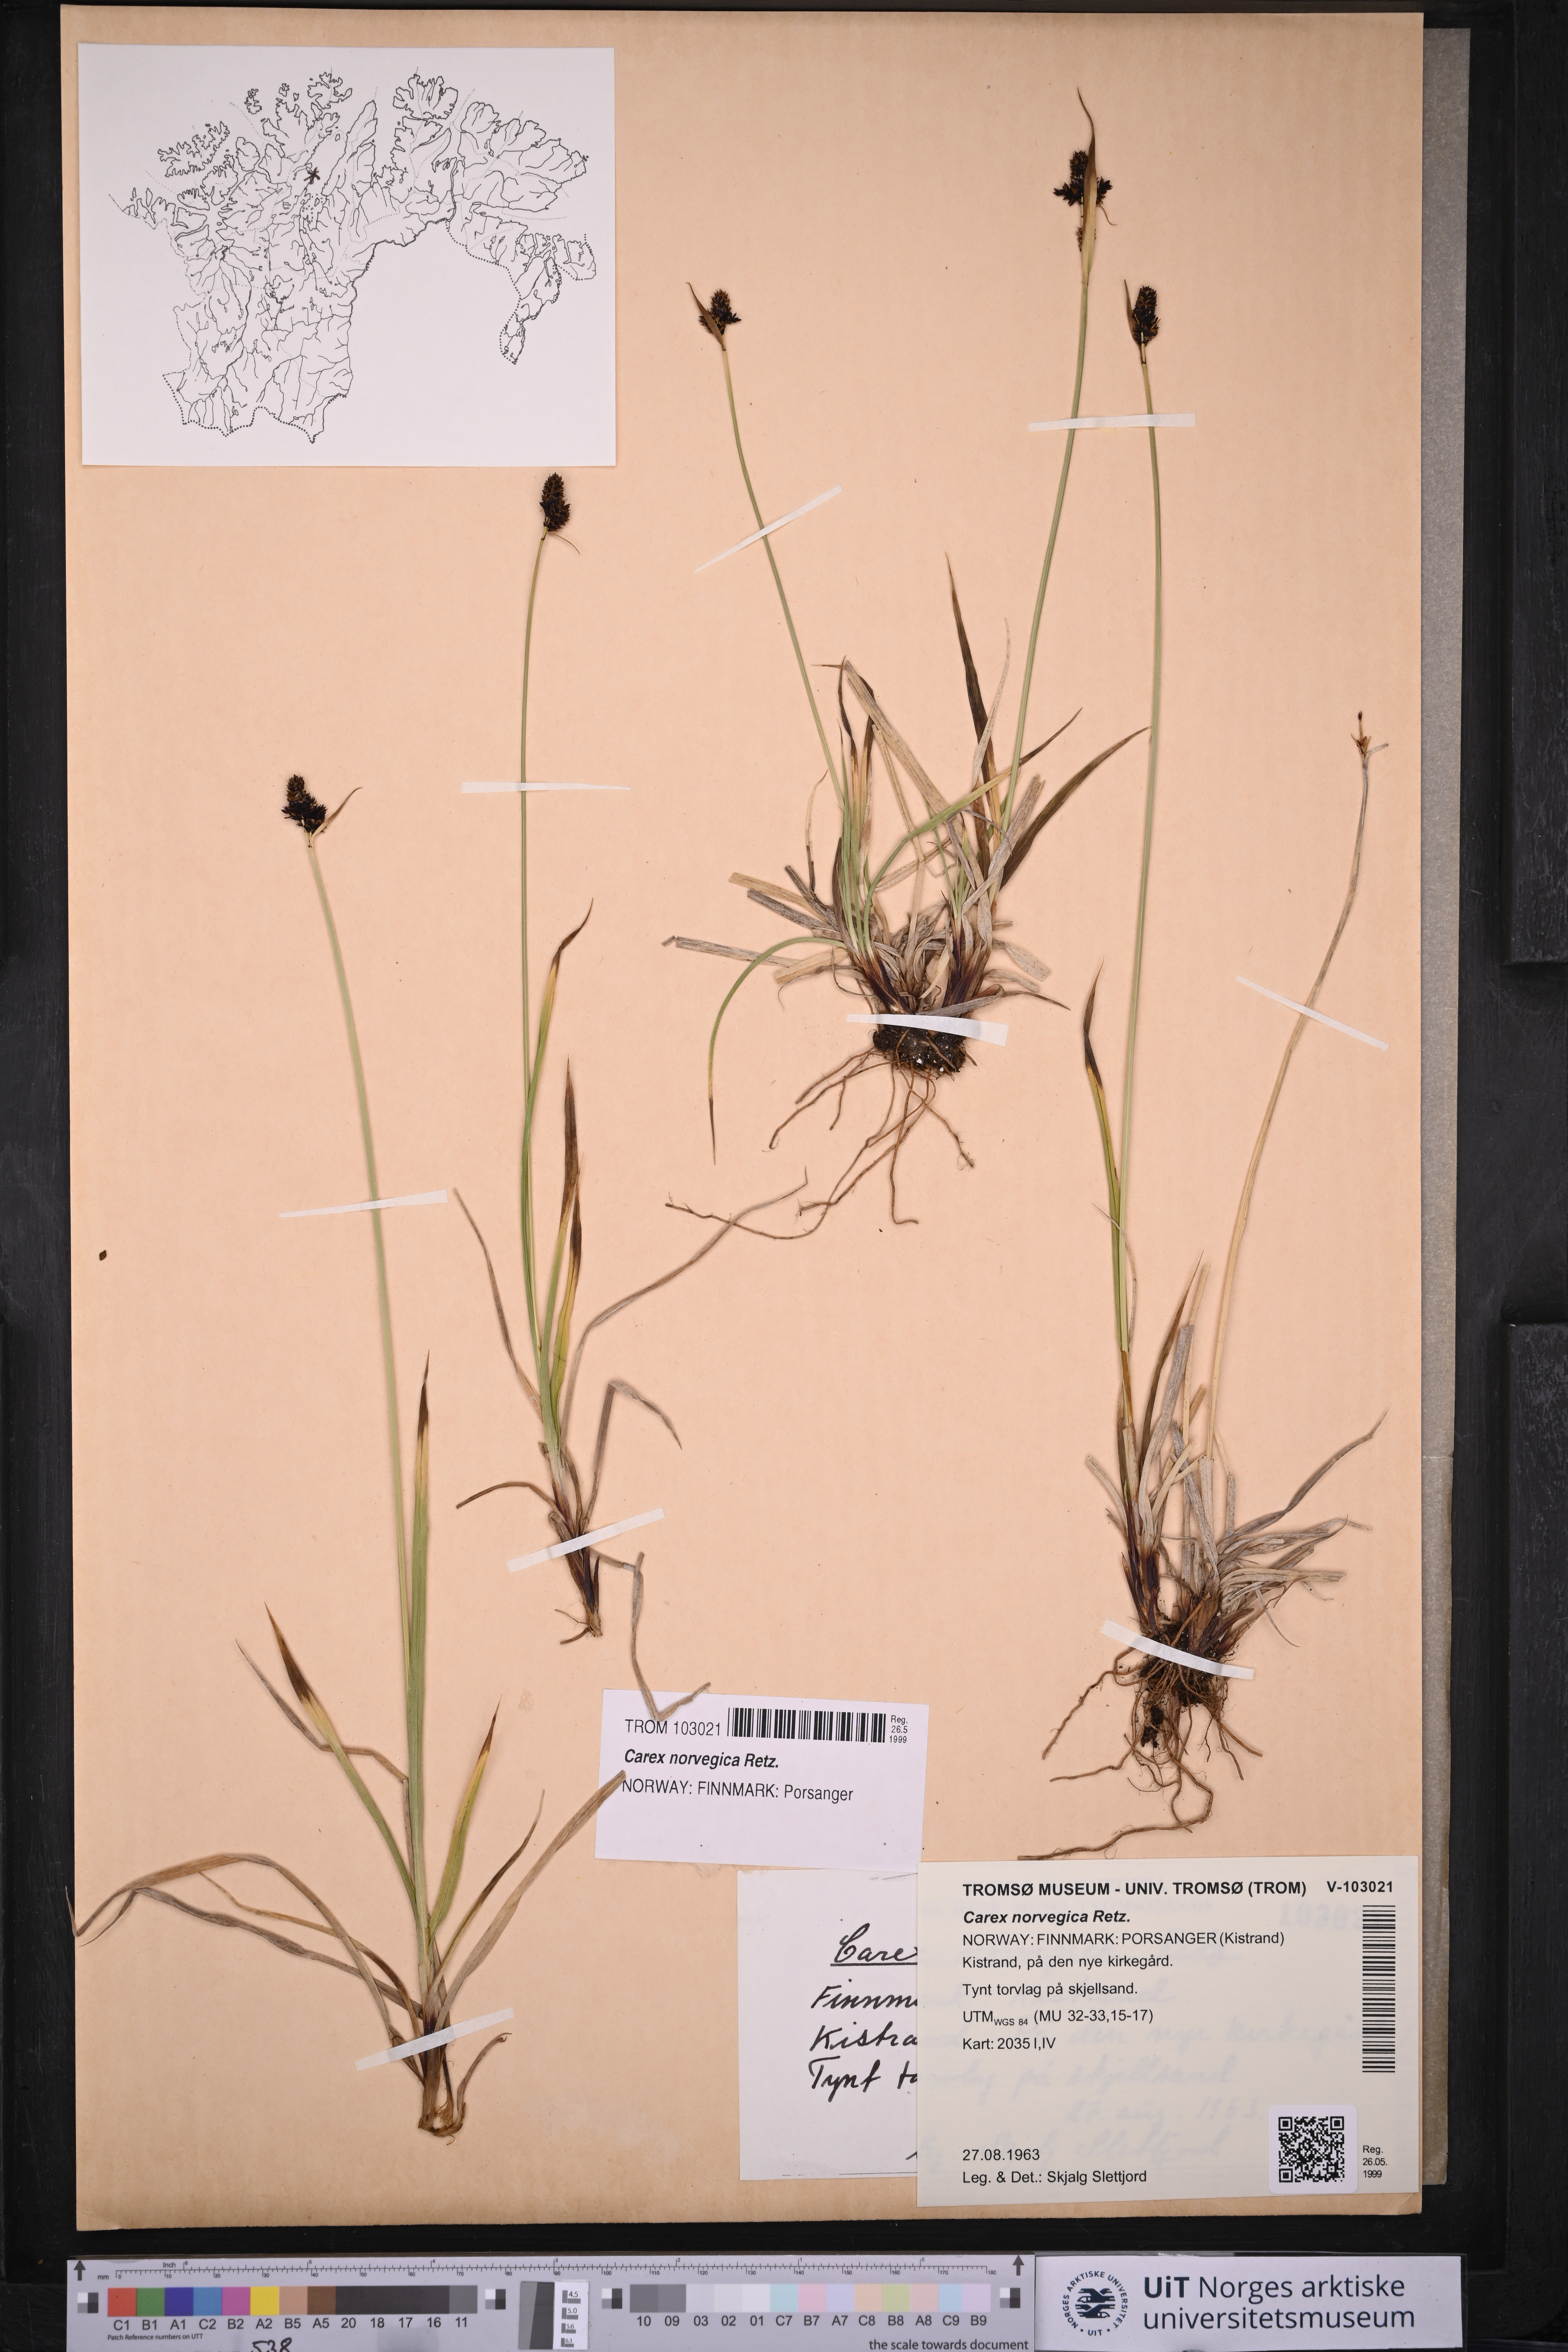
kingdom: Plantae
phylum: Tracheophyta
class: Liliopsida
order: Poales
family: Cyperaceae
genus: Carex
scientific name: Carex norvegica
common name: Close-headed alpine-sedge
